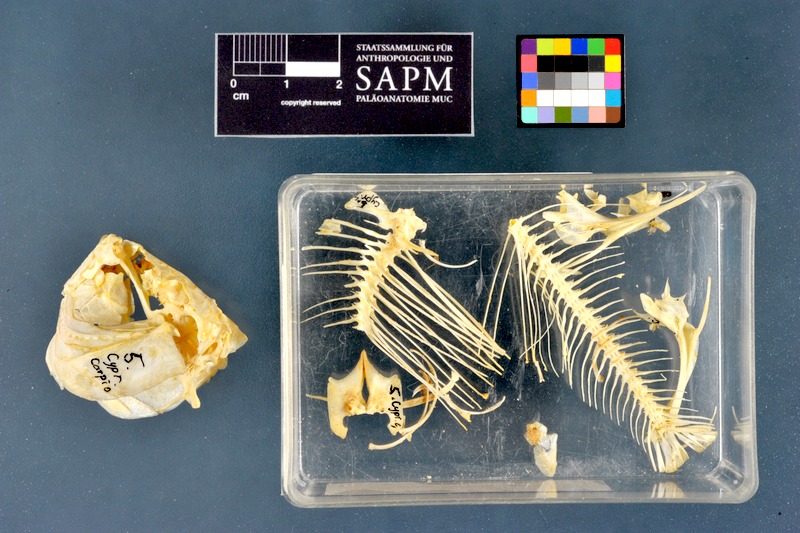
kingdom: Animalia
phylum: Chordata
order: Cypriniformes
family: Cyprinidae
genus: Cyprinus
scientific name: Cyprinus carpio
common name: Common carp
